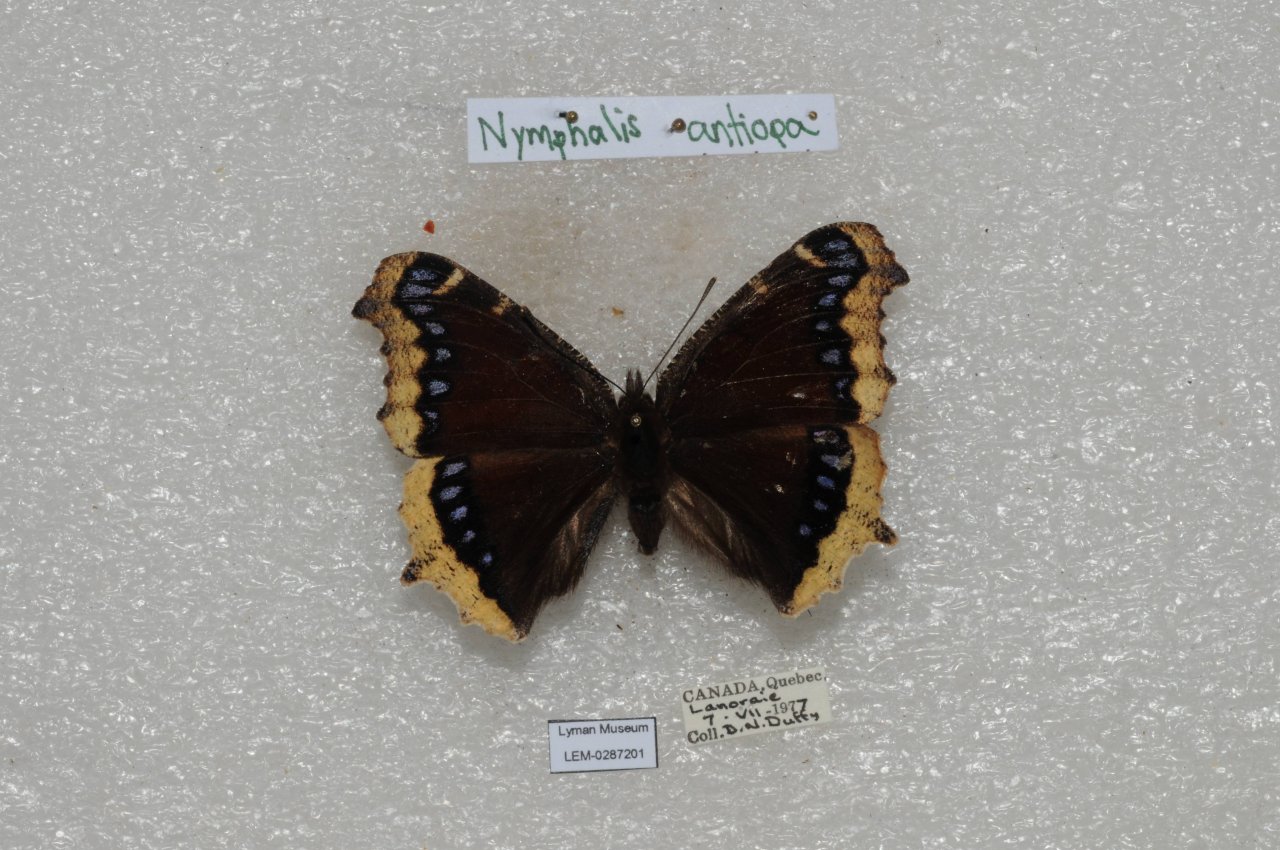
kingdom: Animalia
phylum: Arthropoda
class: Insecta
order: Lepidoptera
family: Nymphalidae
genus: Nymphalis
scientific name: Nymphalis antiopa
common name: Mourning Cloak
